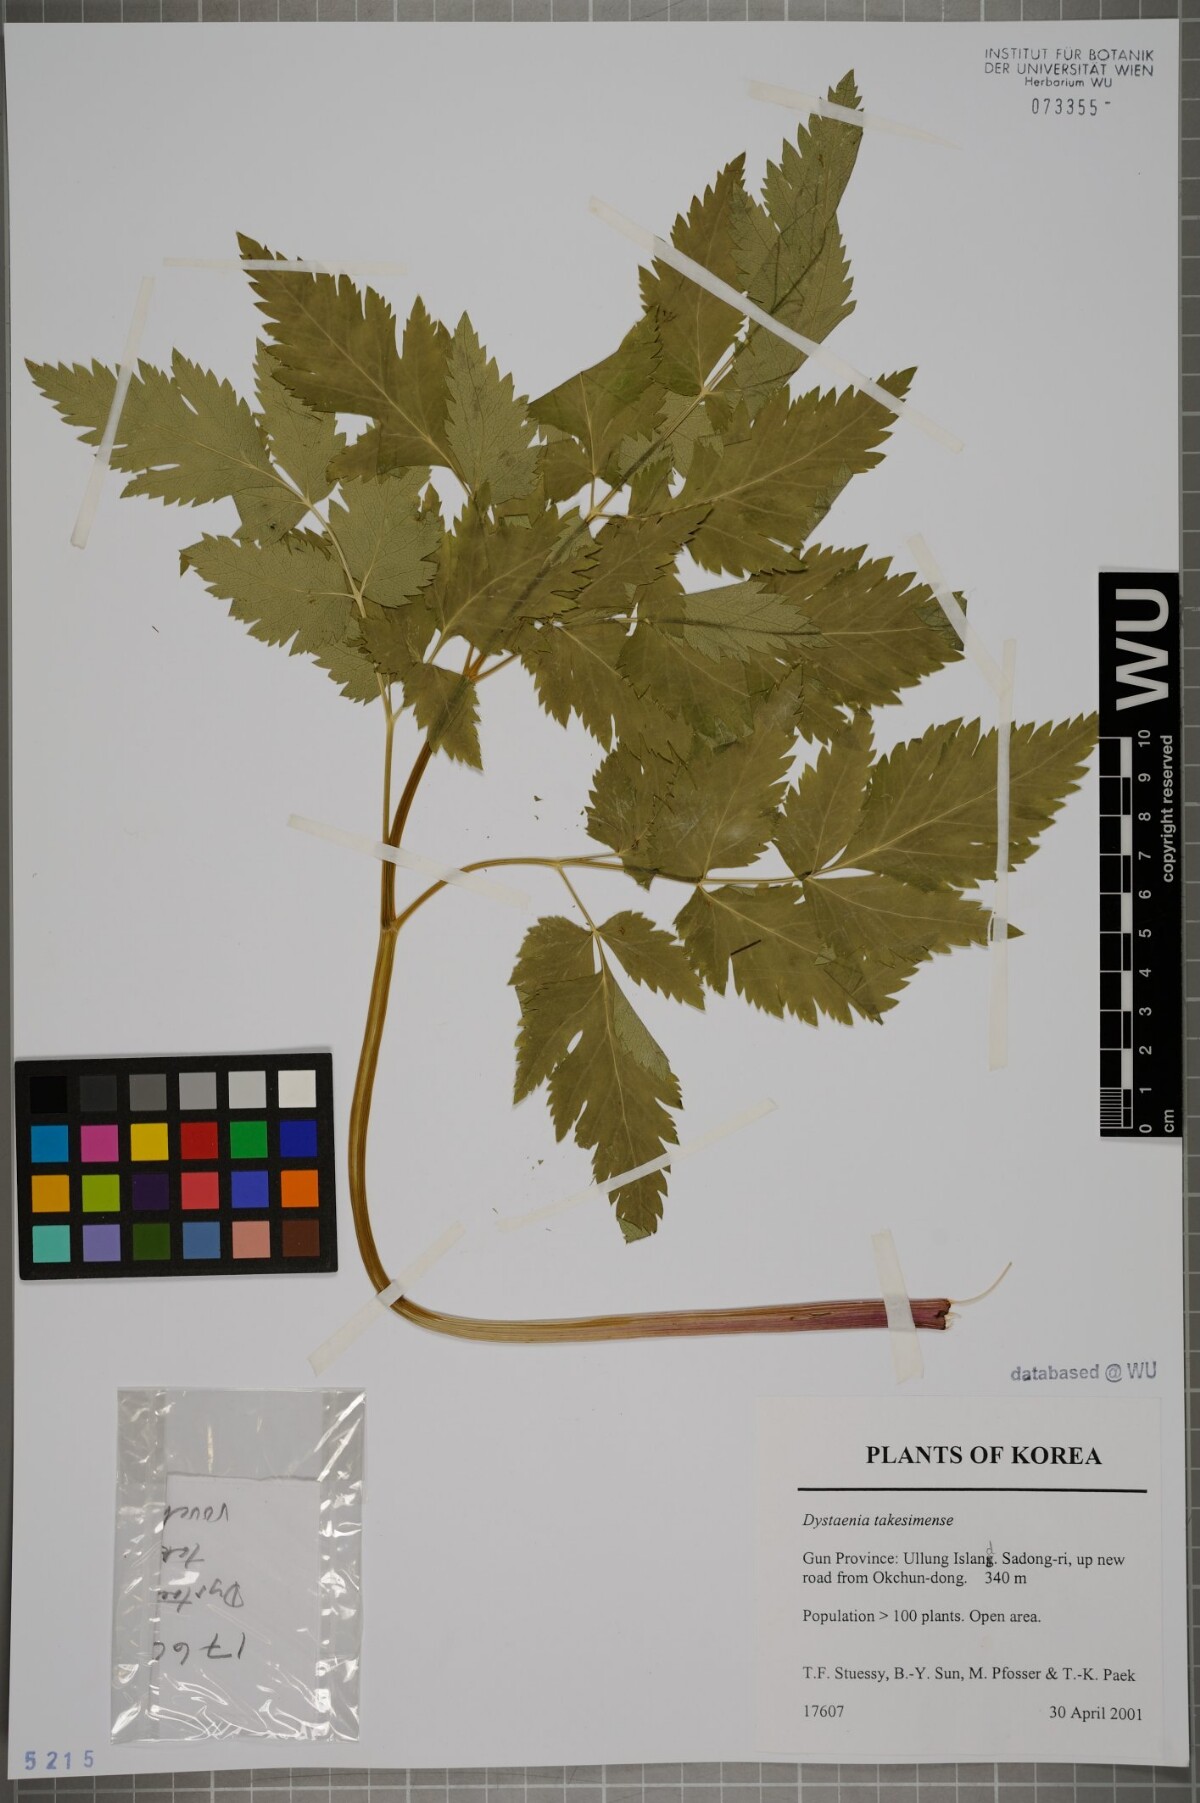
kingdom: Plantae
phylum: Tracheophyta
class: Magnoliopsida
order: Apiales
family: Apiaceae
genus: Dystaenia
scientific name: Dystaenia takeshimana
